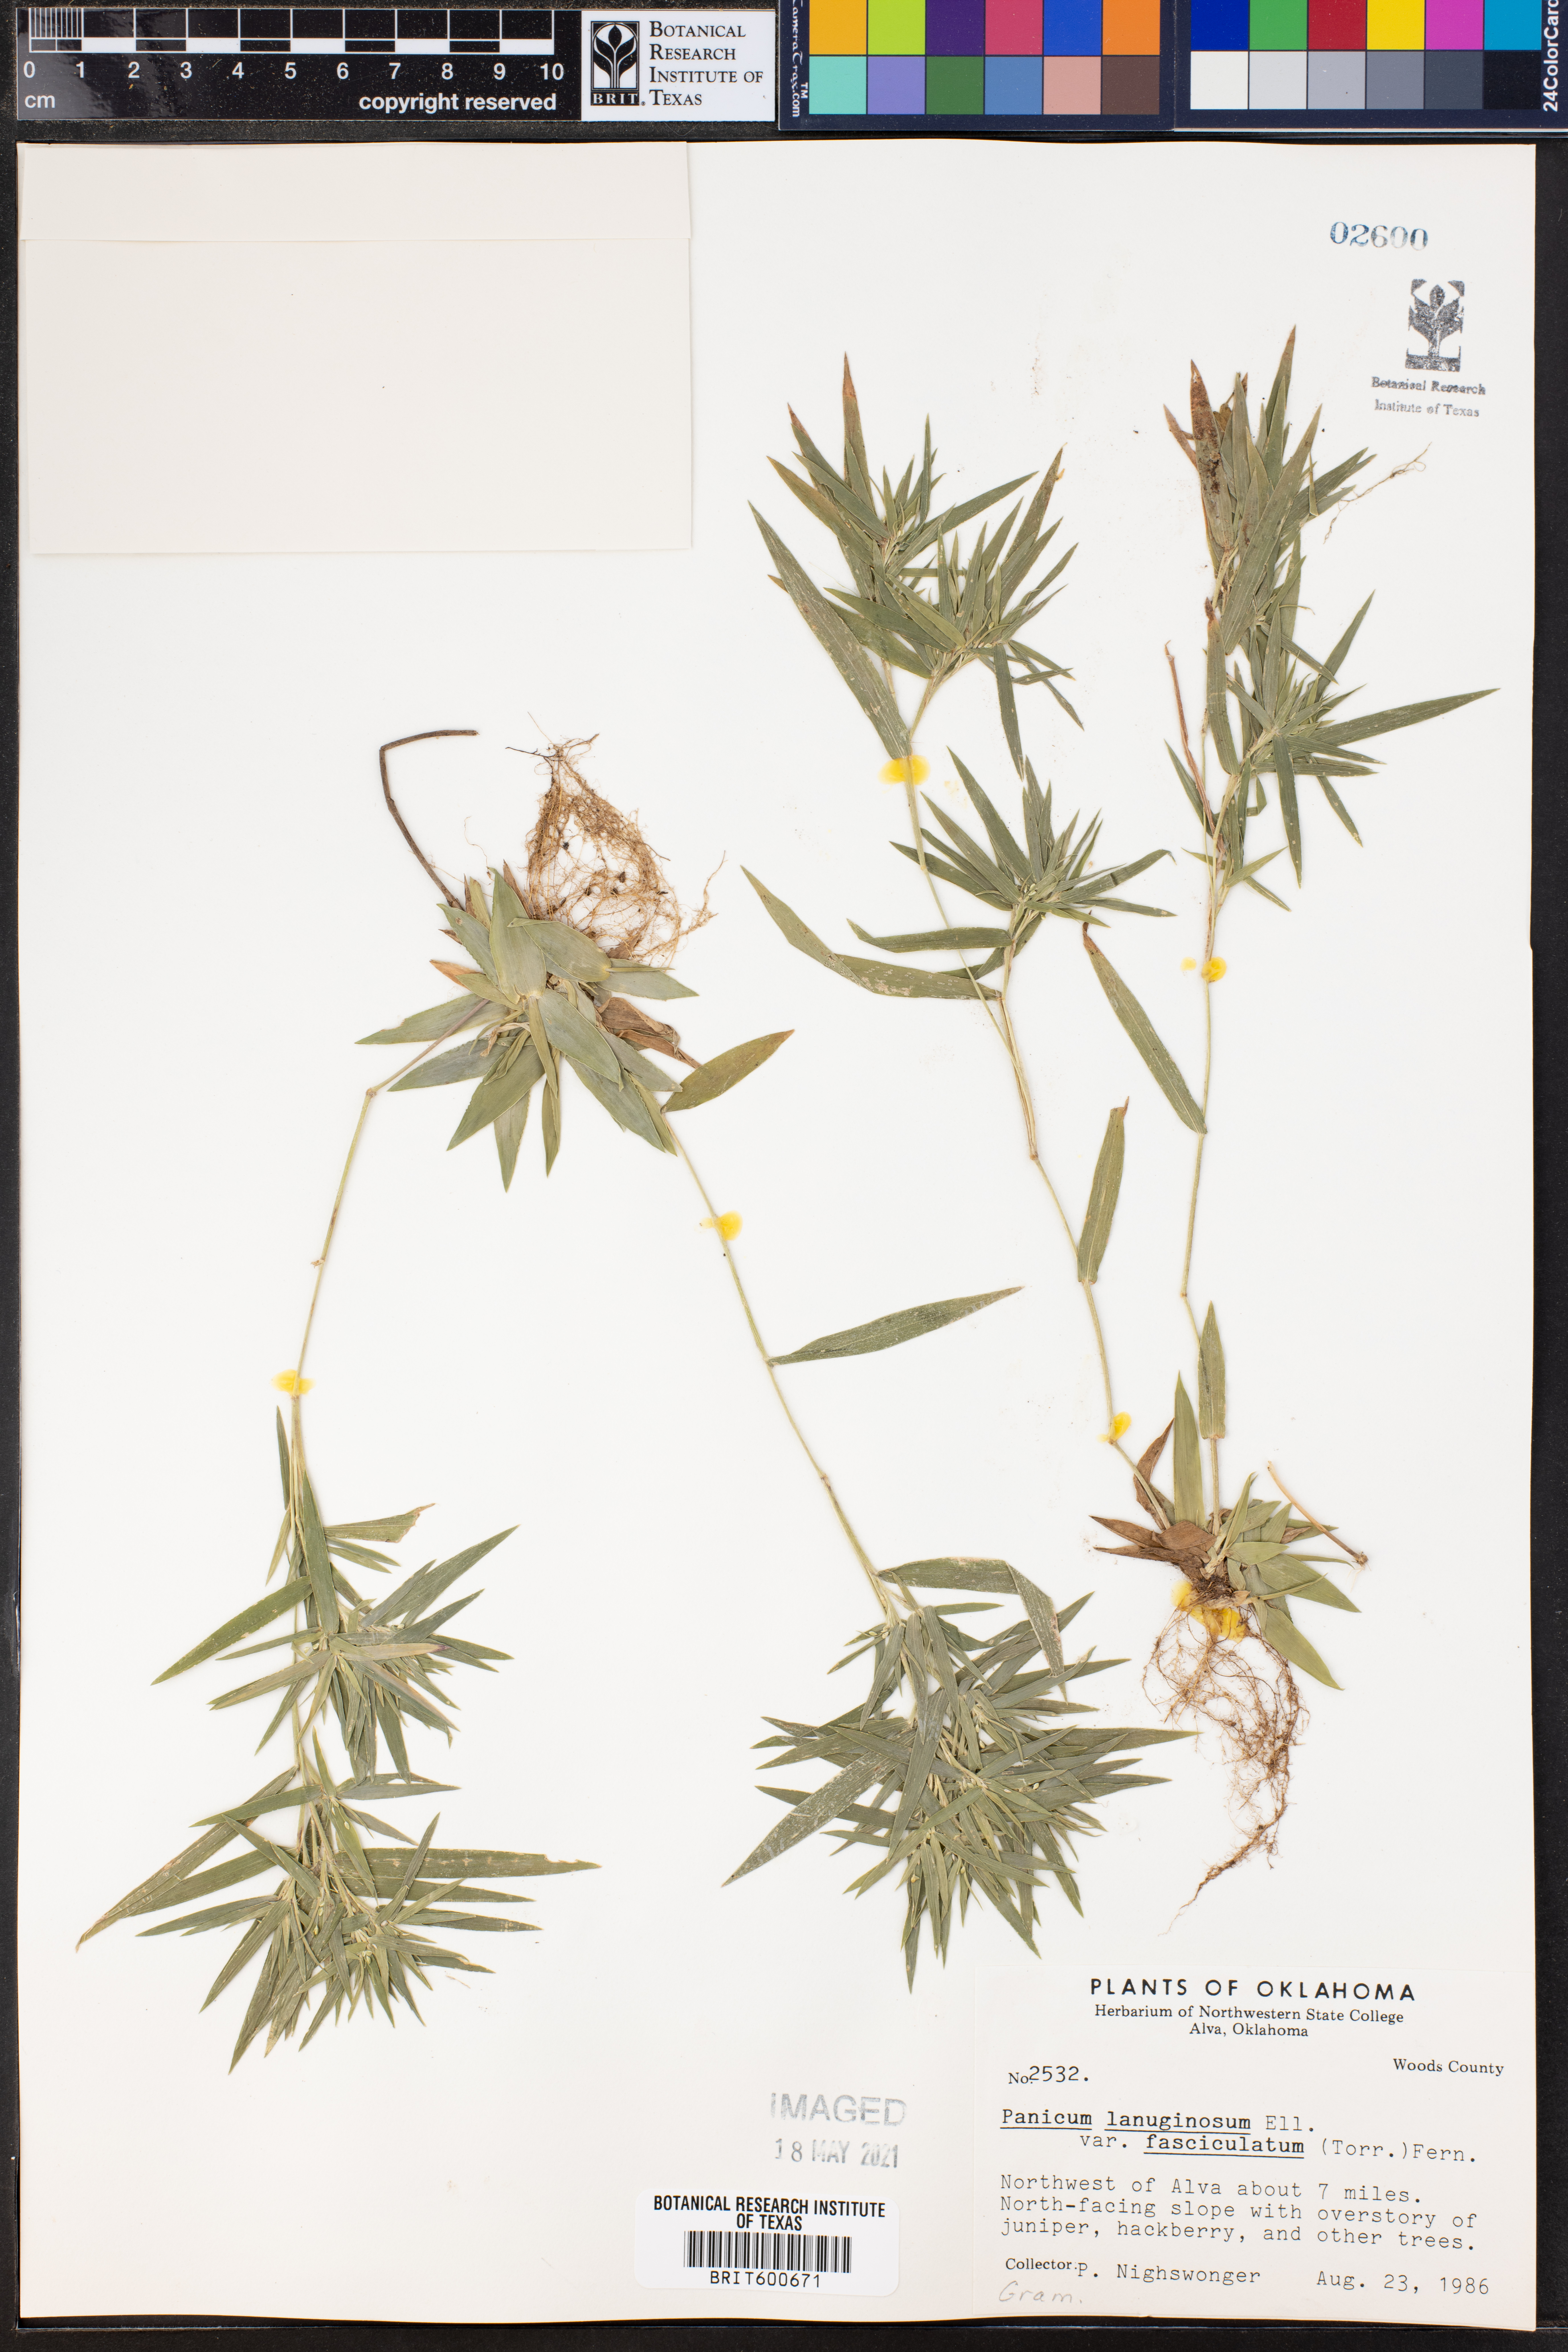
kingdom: Plantae
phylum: Tracheophyta
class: Liliopsida
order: Poales
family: Poaceae
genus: Dichanthelium
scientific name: Dichanthelium lanuginosum
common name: Woolly panicgrass
